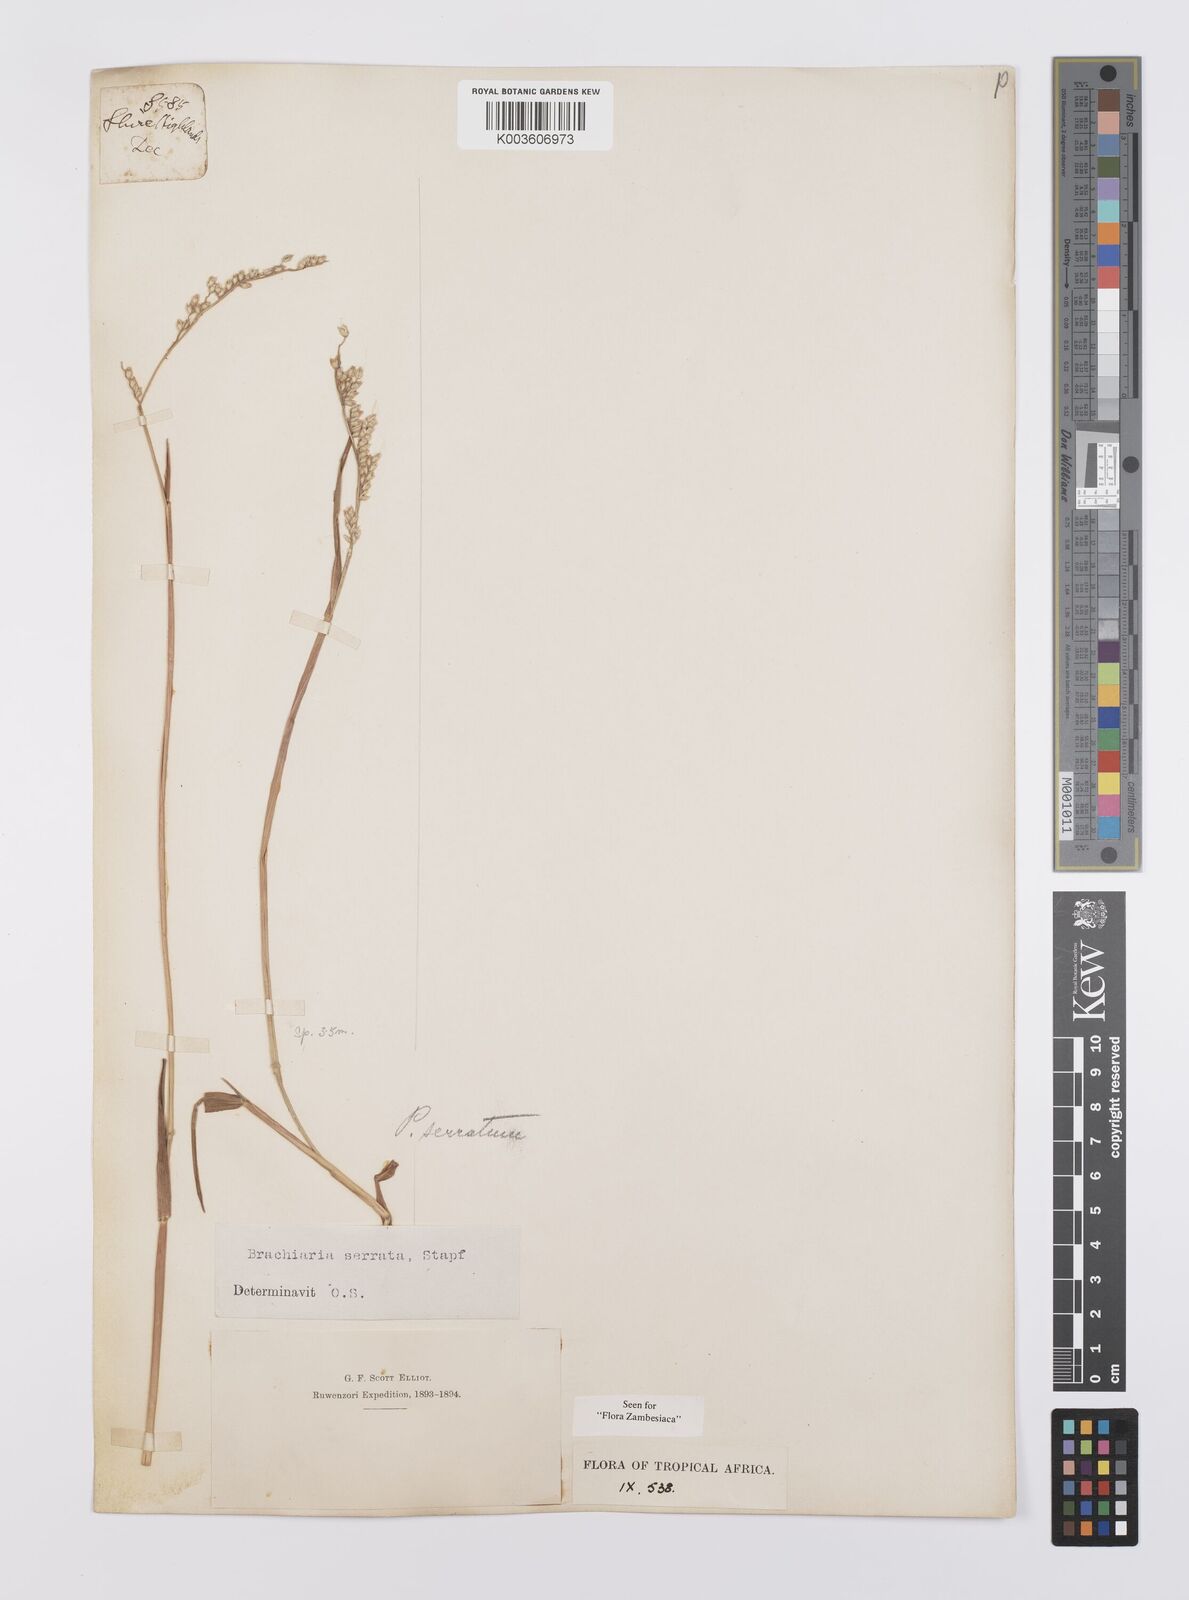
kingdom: Plantae
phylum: Tracheophyta
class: Liliopsida
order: Poales
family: Poaceae
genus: Urochloa
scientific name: Urochloa serrata
